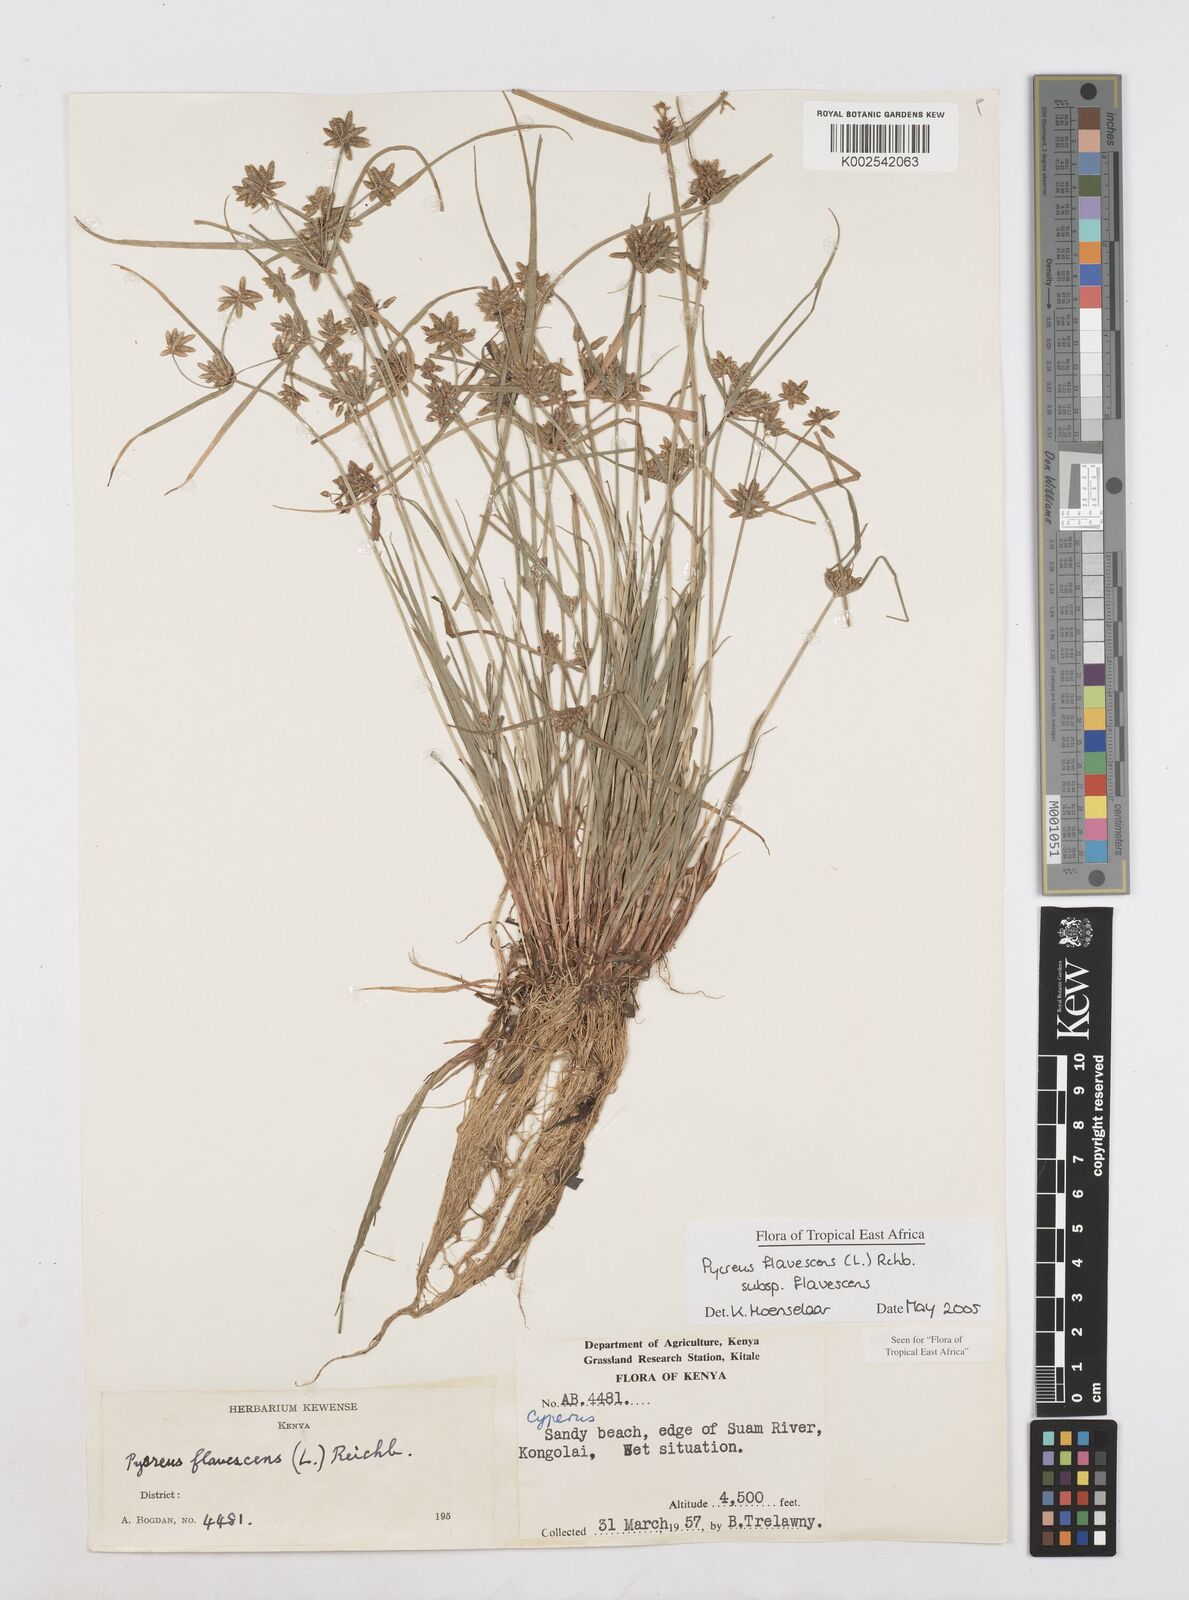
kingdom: Plantae
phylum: Tracheophyta
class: Liliopsida
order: Poales
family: Cyperaceae
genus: Cyperus
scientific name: Cyperus flavescens
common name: Yellow galingale
